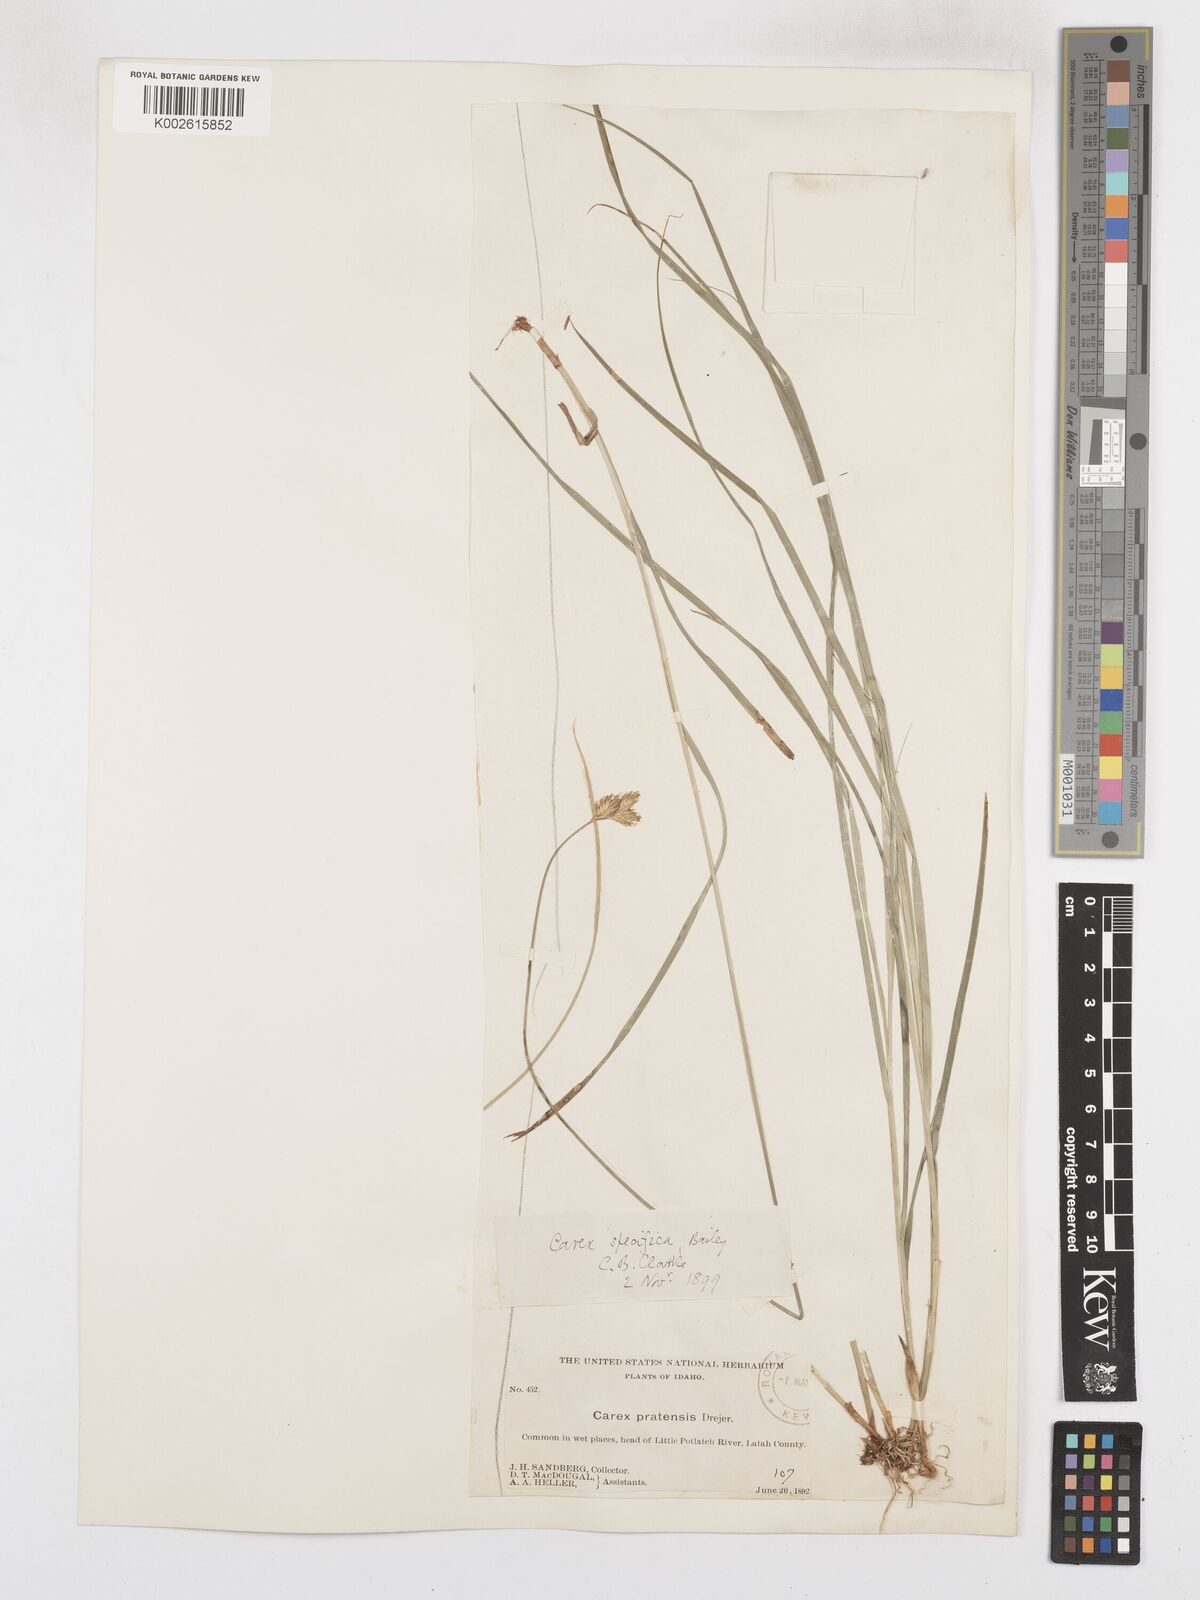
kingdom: Plantae
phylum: Tracheophyta
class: Liliopsida
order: Poales
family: Cyperaceae
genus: Carex
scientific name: Carex specifica
